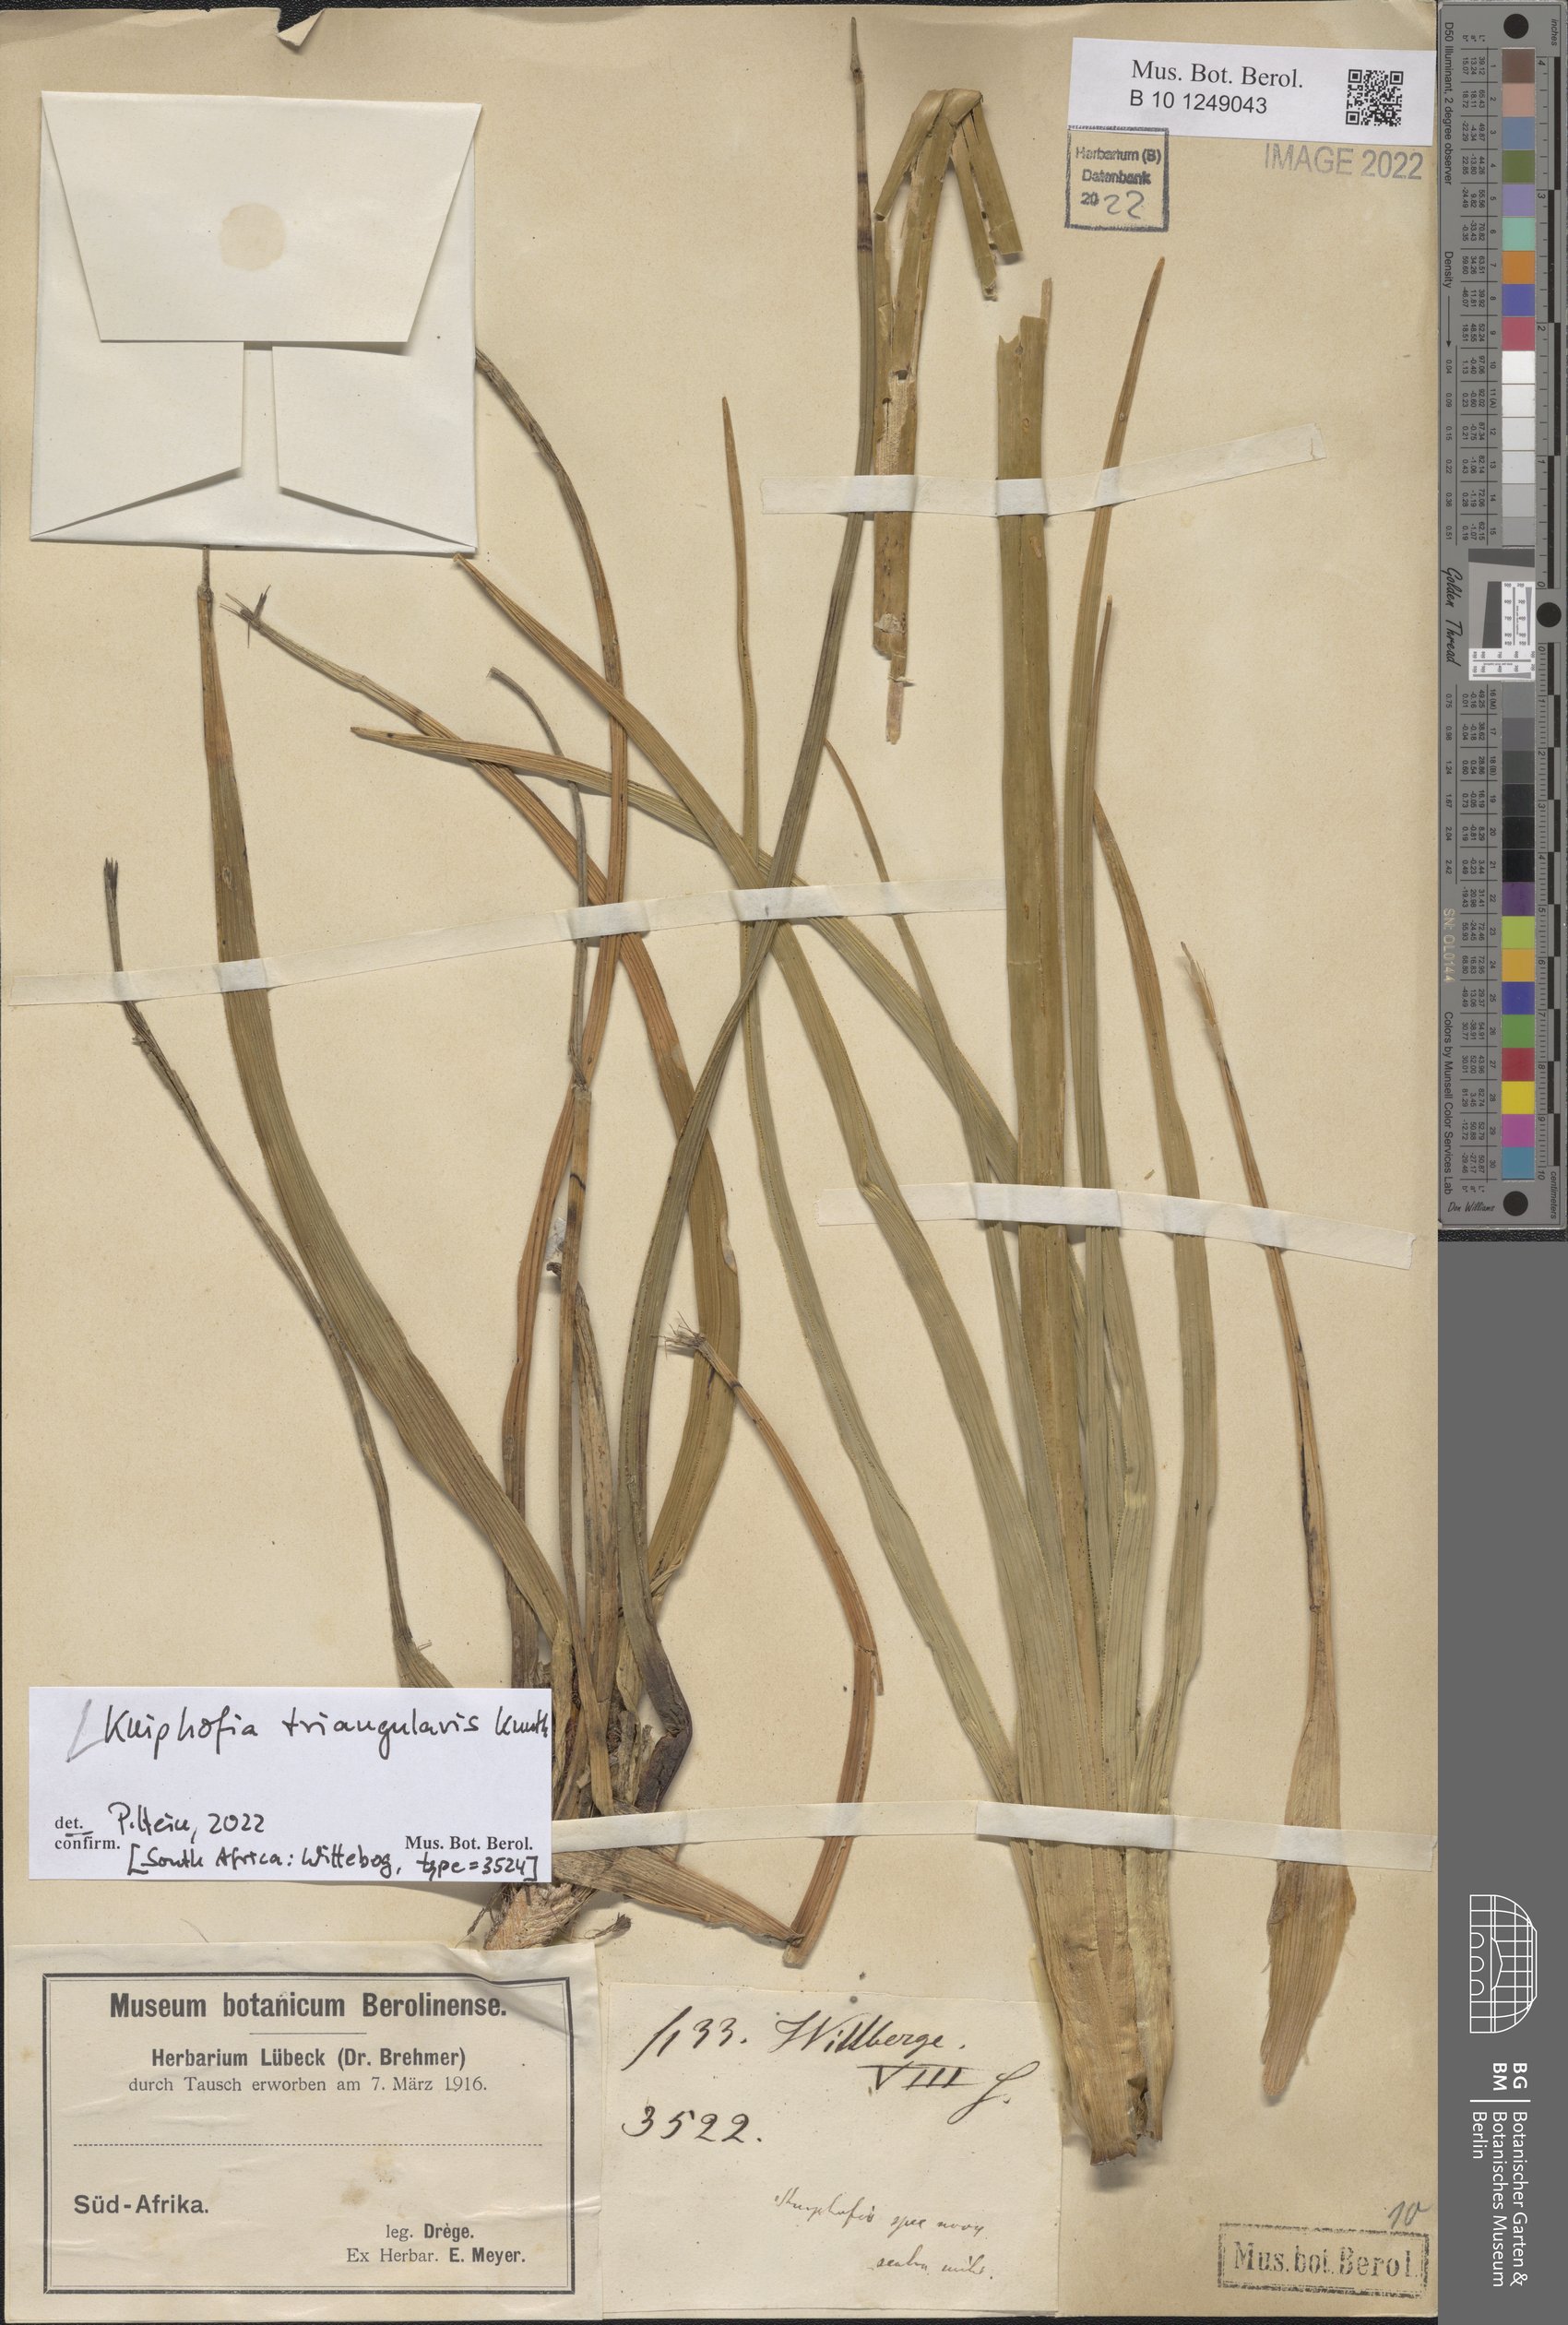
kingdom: Plantae
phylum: Tracheophyta
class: Liliopsida
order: Asparagales
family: Asphodelaceae
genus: Kniphofia
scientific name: Kniphofia triangularis
